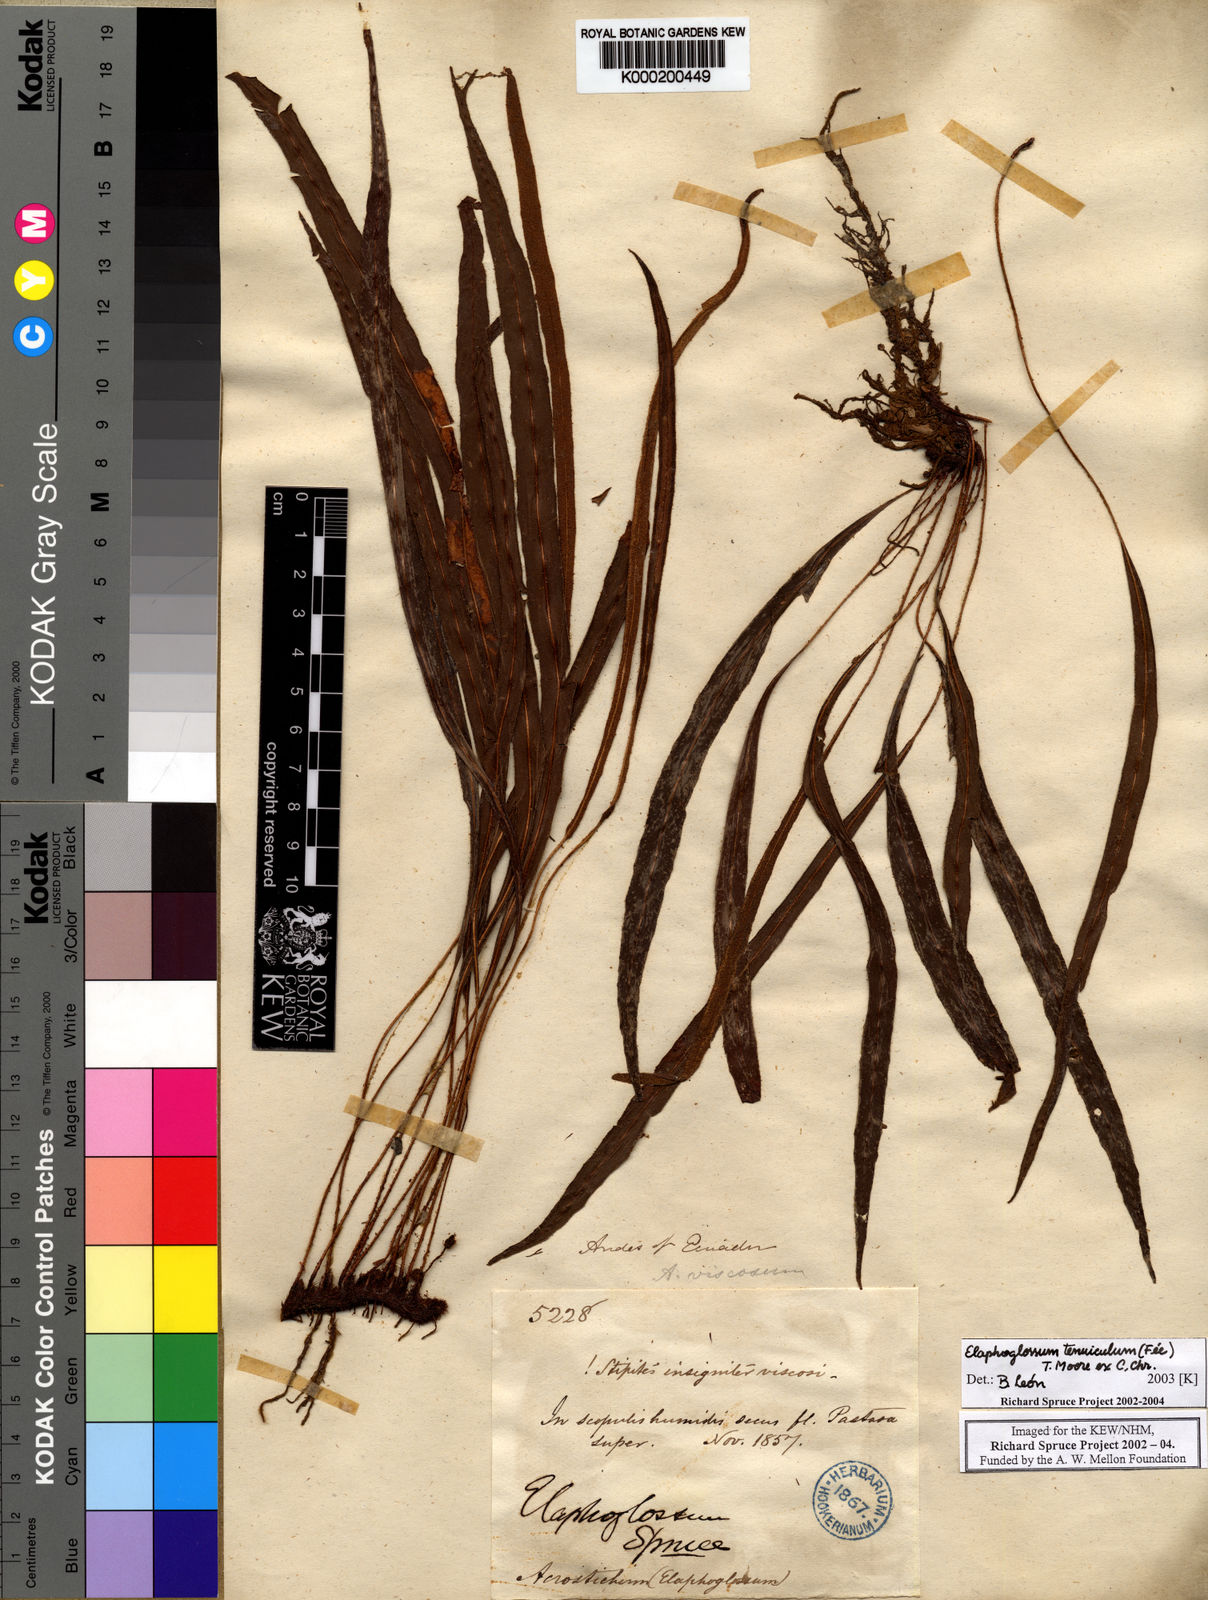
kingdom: Plantae
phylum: Tracheophyta
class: Polypodiopsida
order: Polypodiales
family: Dryopteridaceae
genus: Elaphoglossum
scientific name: Elaphoglossum
